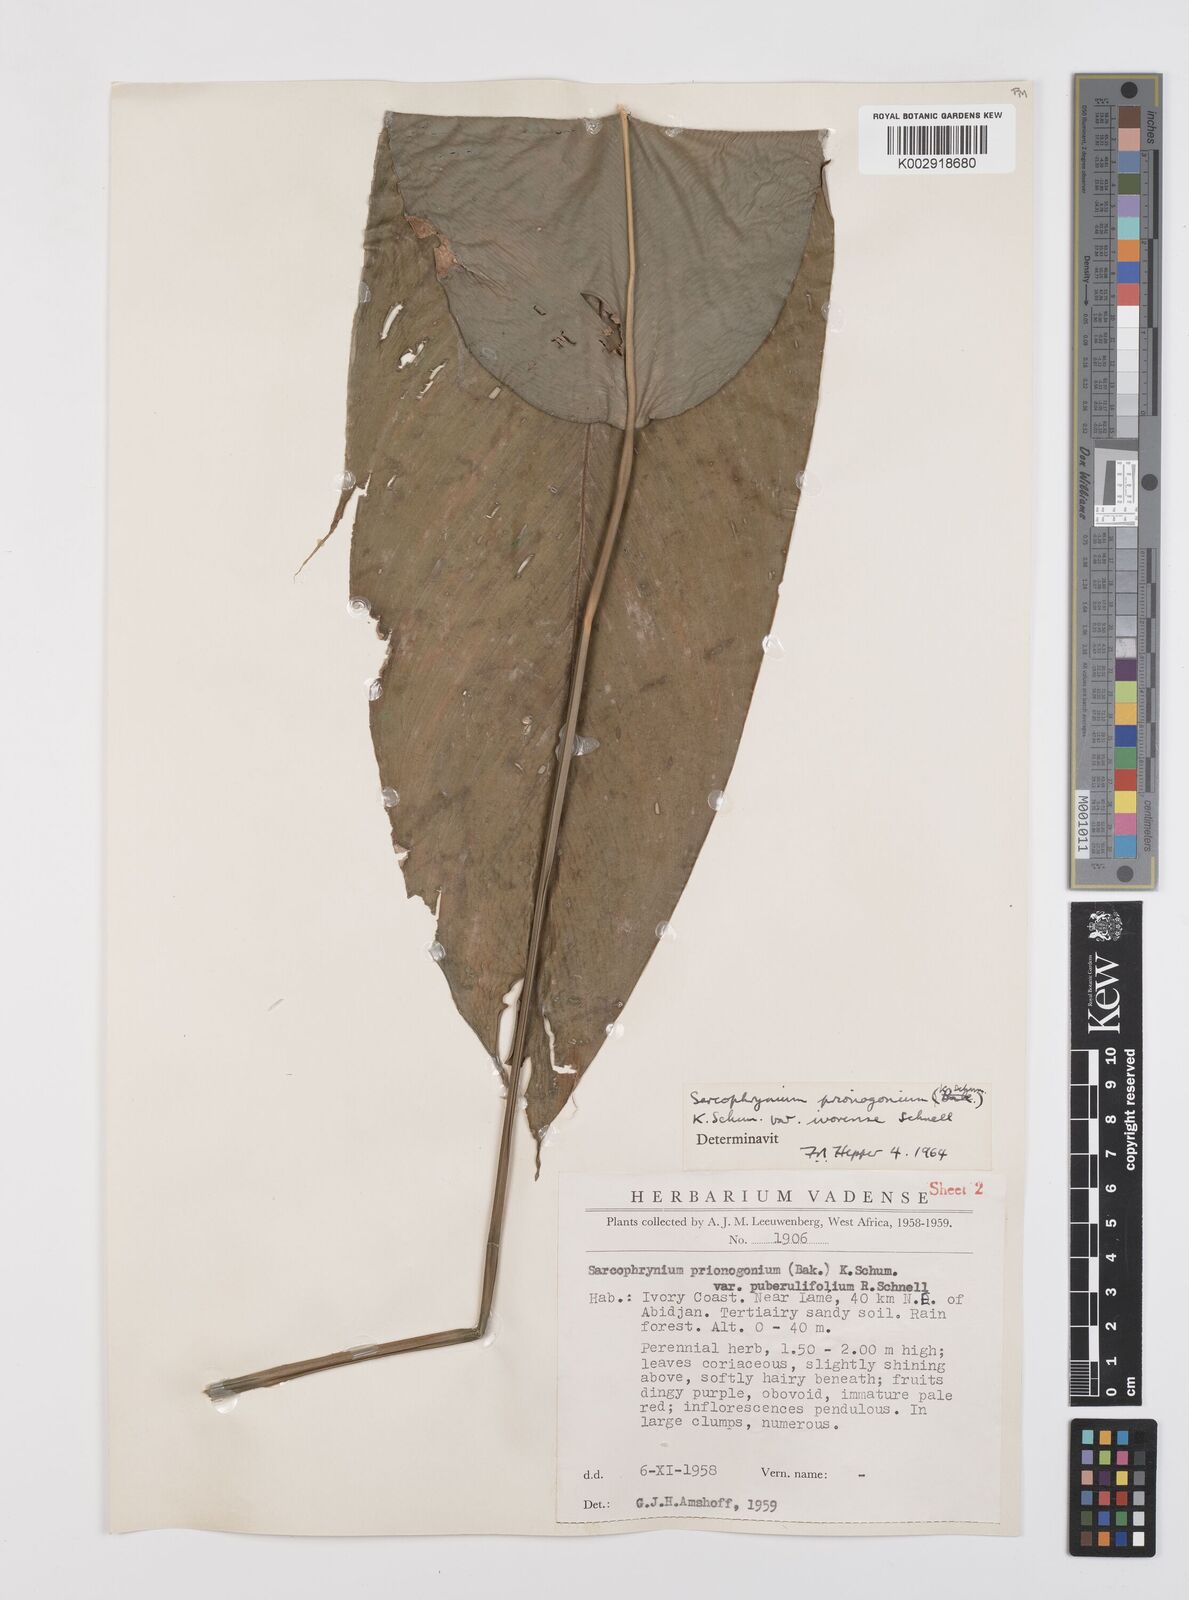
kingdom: Plantae
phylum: Tracheophyta
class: Liliopsida
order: Zingiberales
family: Marantaceae
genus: Sarcophrynium
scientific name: Sarcophrynium prionogonium
